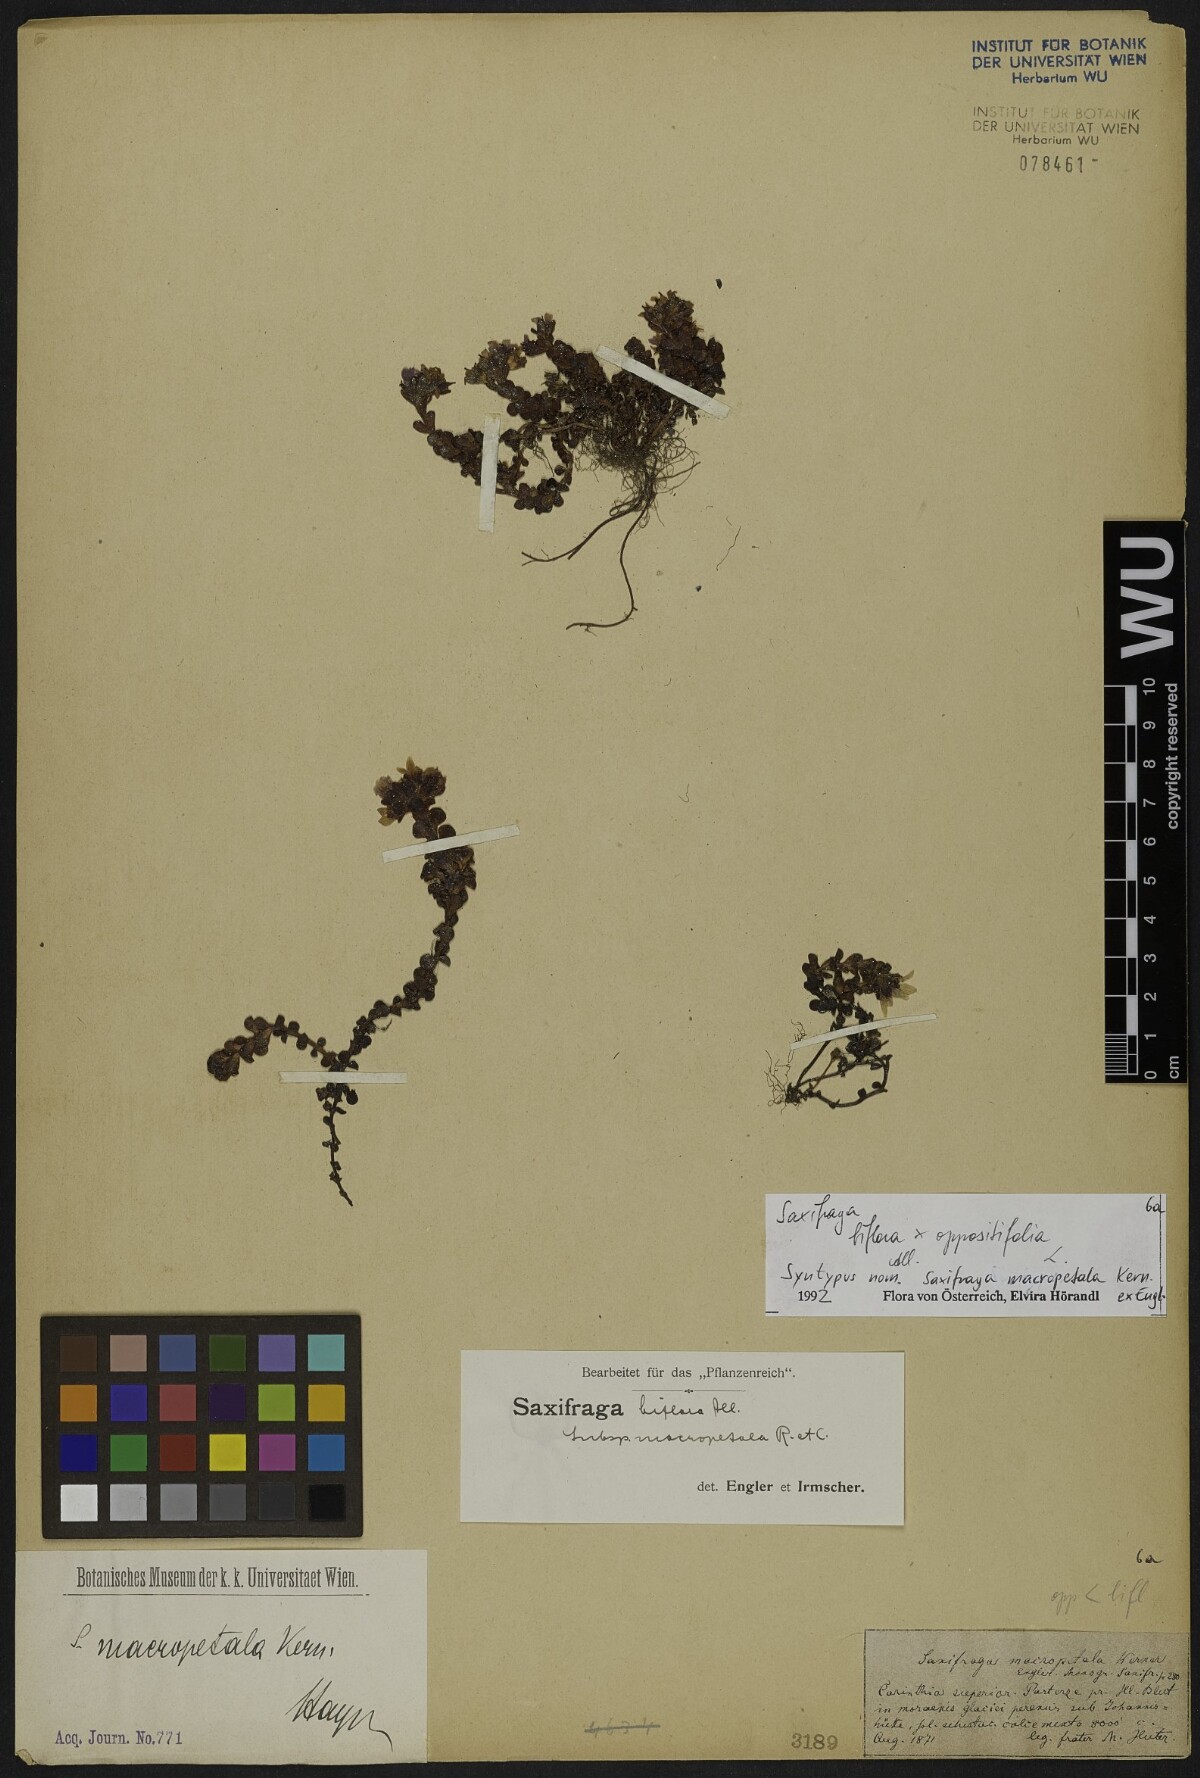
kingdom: Plantae
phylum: Tracheophyta
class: Magnoliopsida
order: Saxifragales
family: Saxifragaceae
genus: Saxifraga
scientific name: Saxifraga kochii
